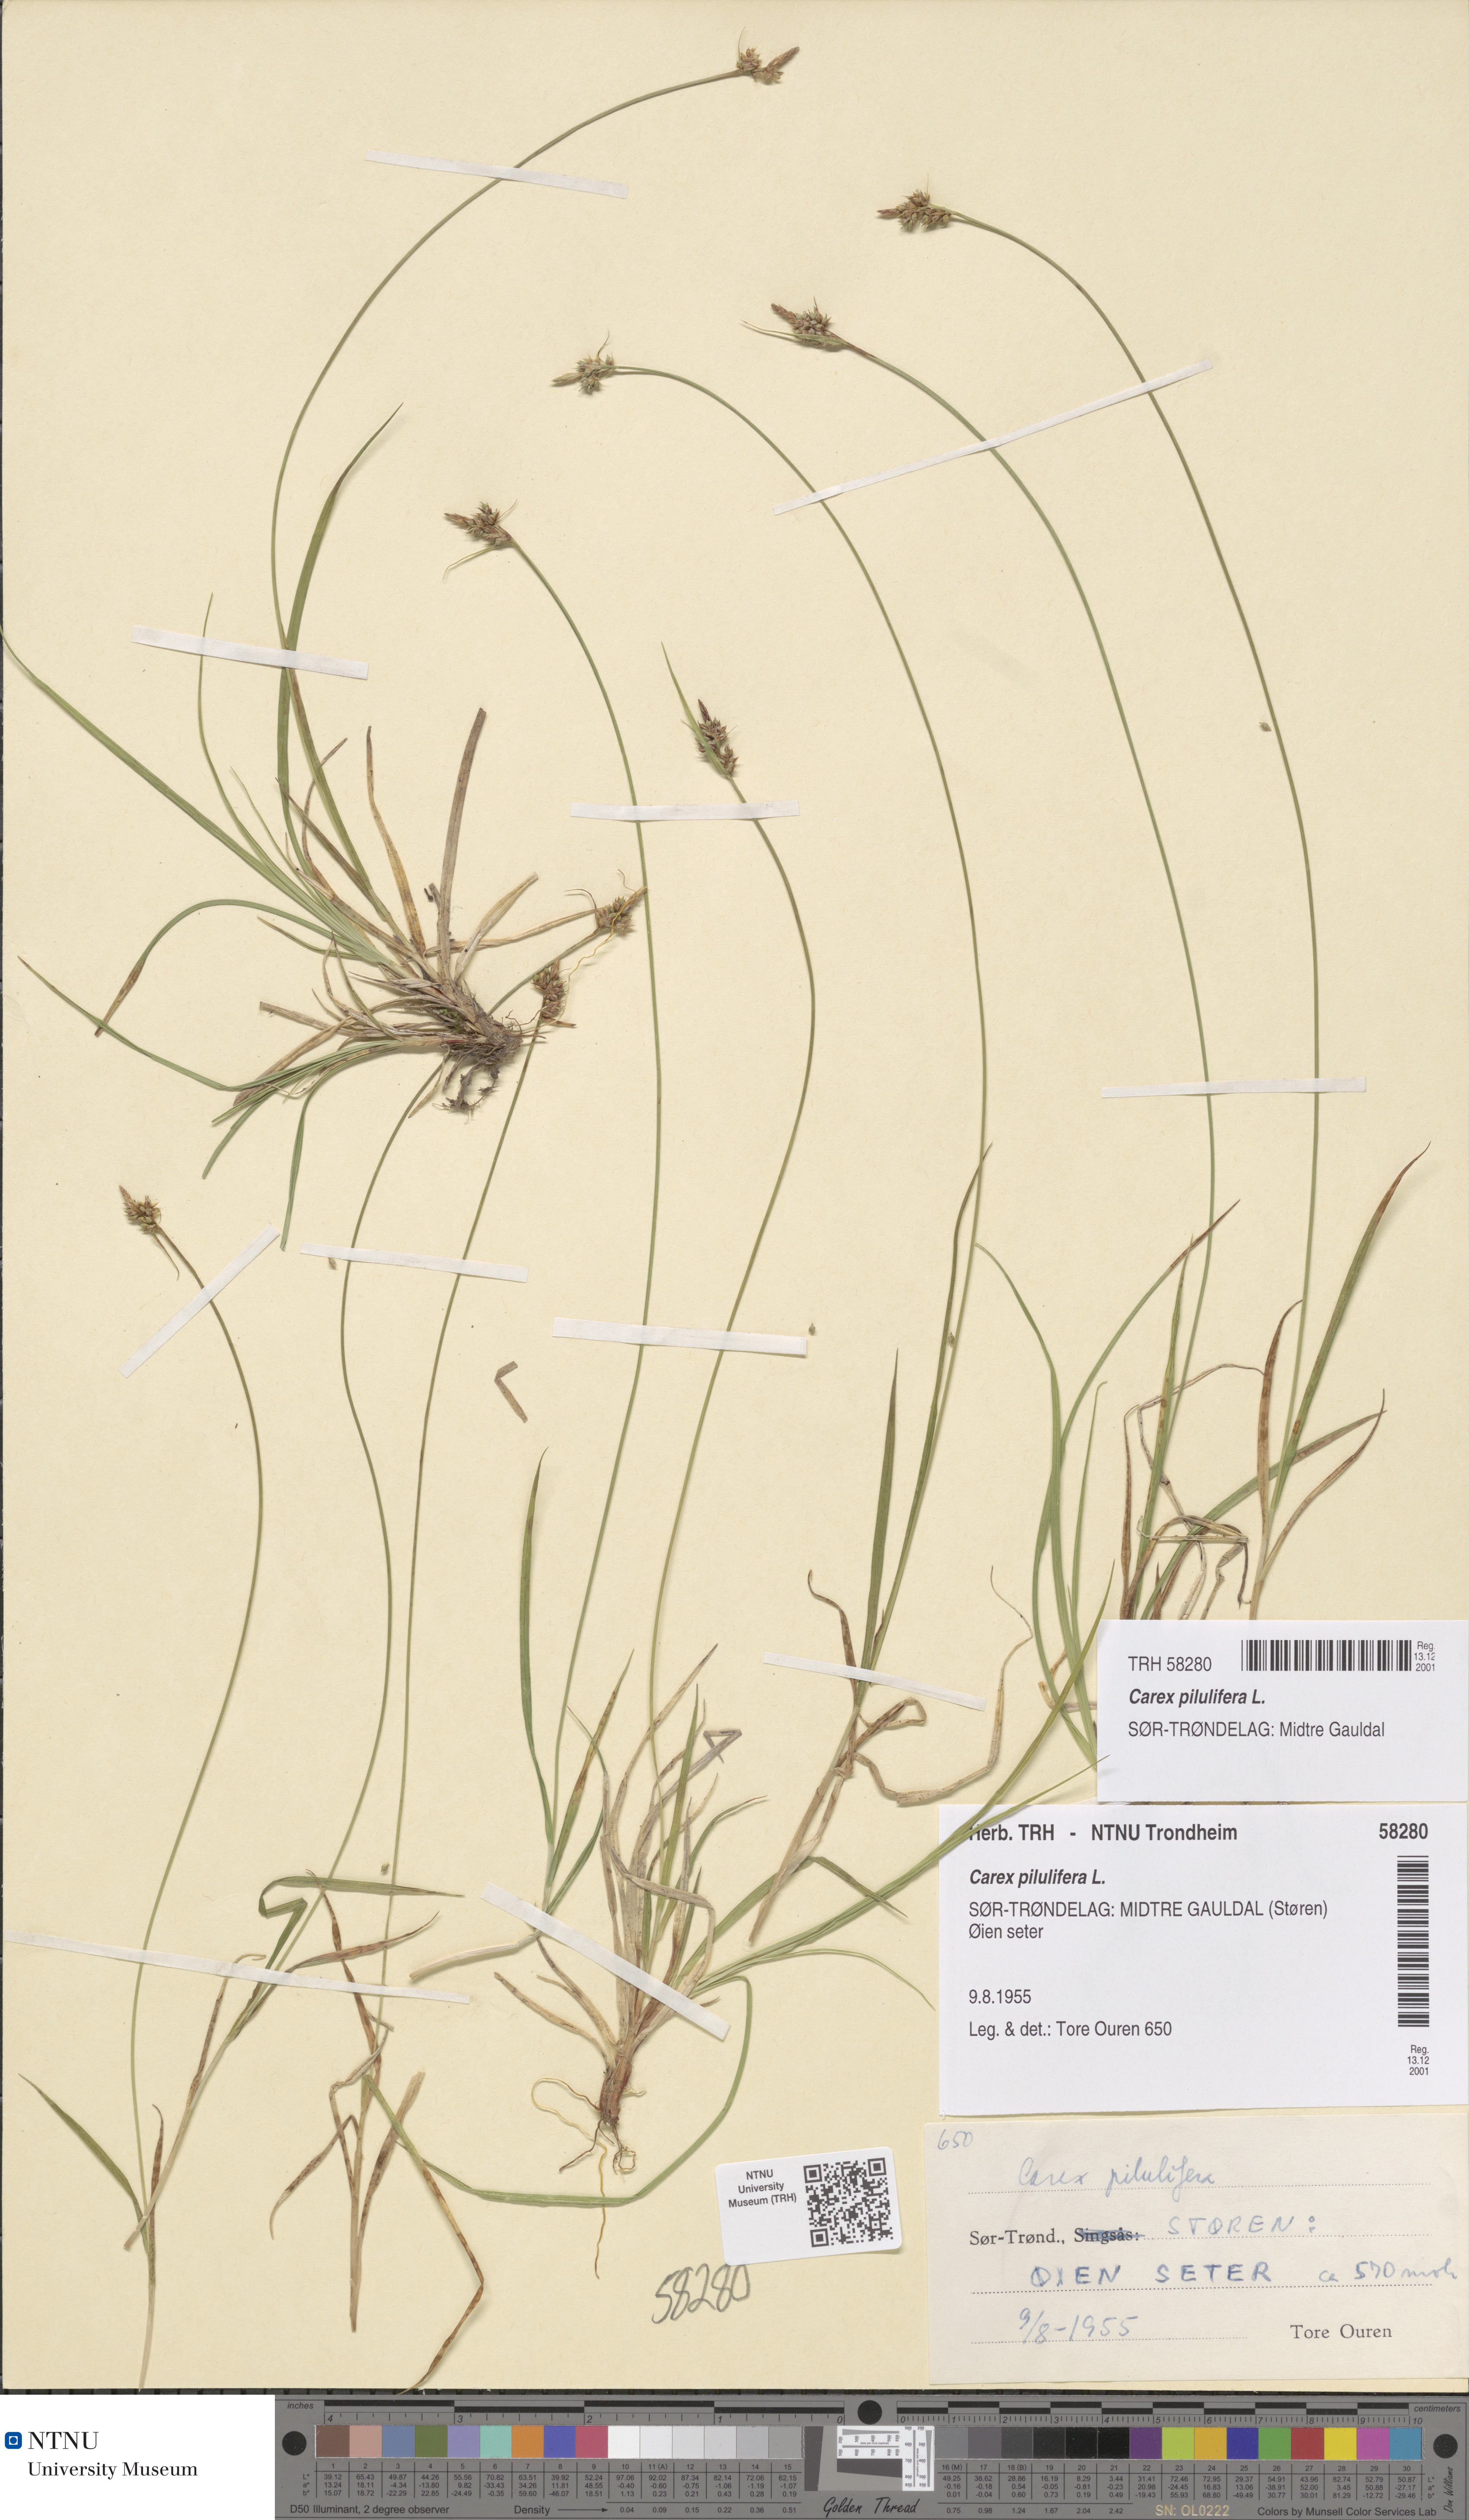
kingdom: Plantae
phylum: Tracheophyta
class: Liliopsida
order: Poales
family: Cyperaceae
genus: Carex
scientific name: Carex pilulifera
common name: Pill sedge
